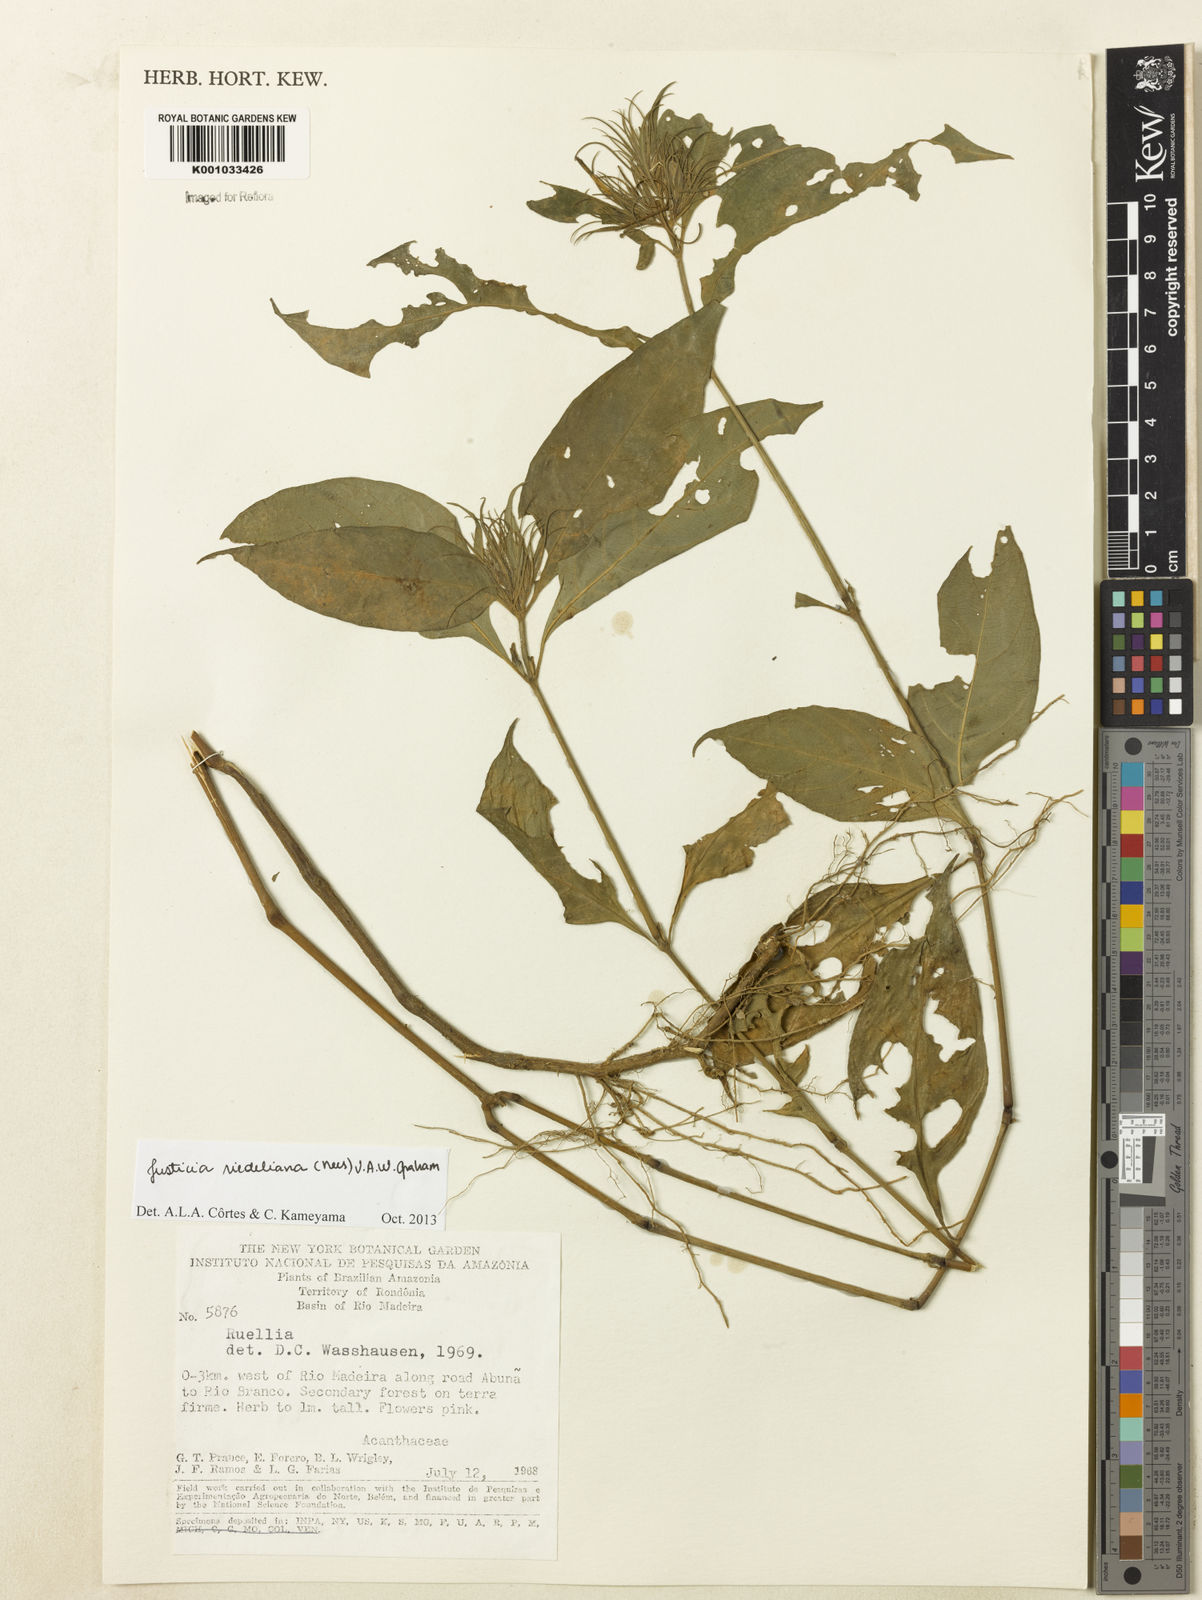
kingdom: Plantae
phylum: Tracheophyta
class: Magnoliopsida
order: Lamiales
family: Acanthaceae
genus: Justicia
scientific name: Justicia riedeliana
